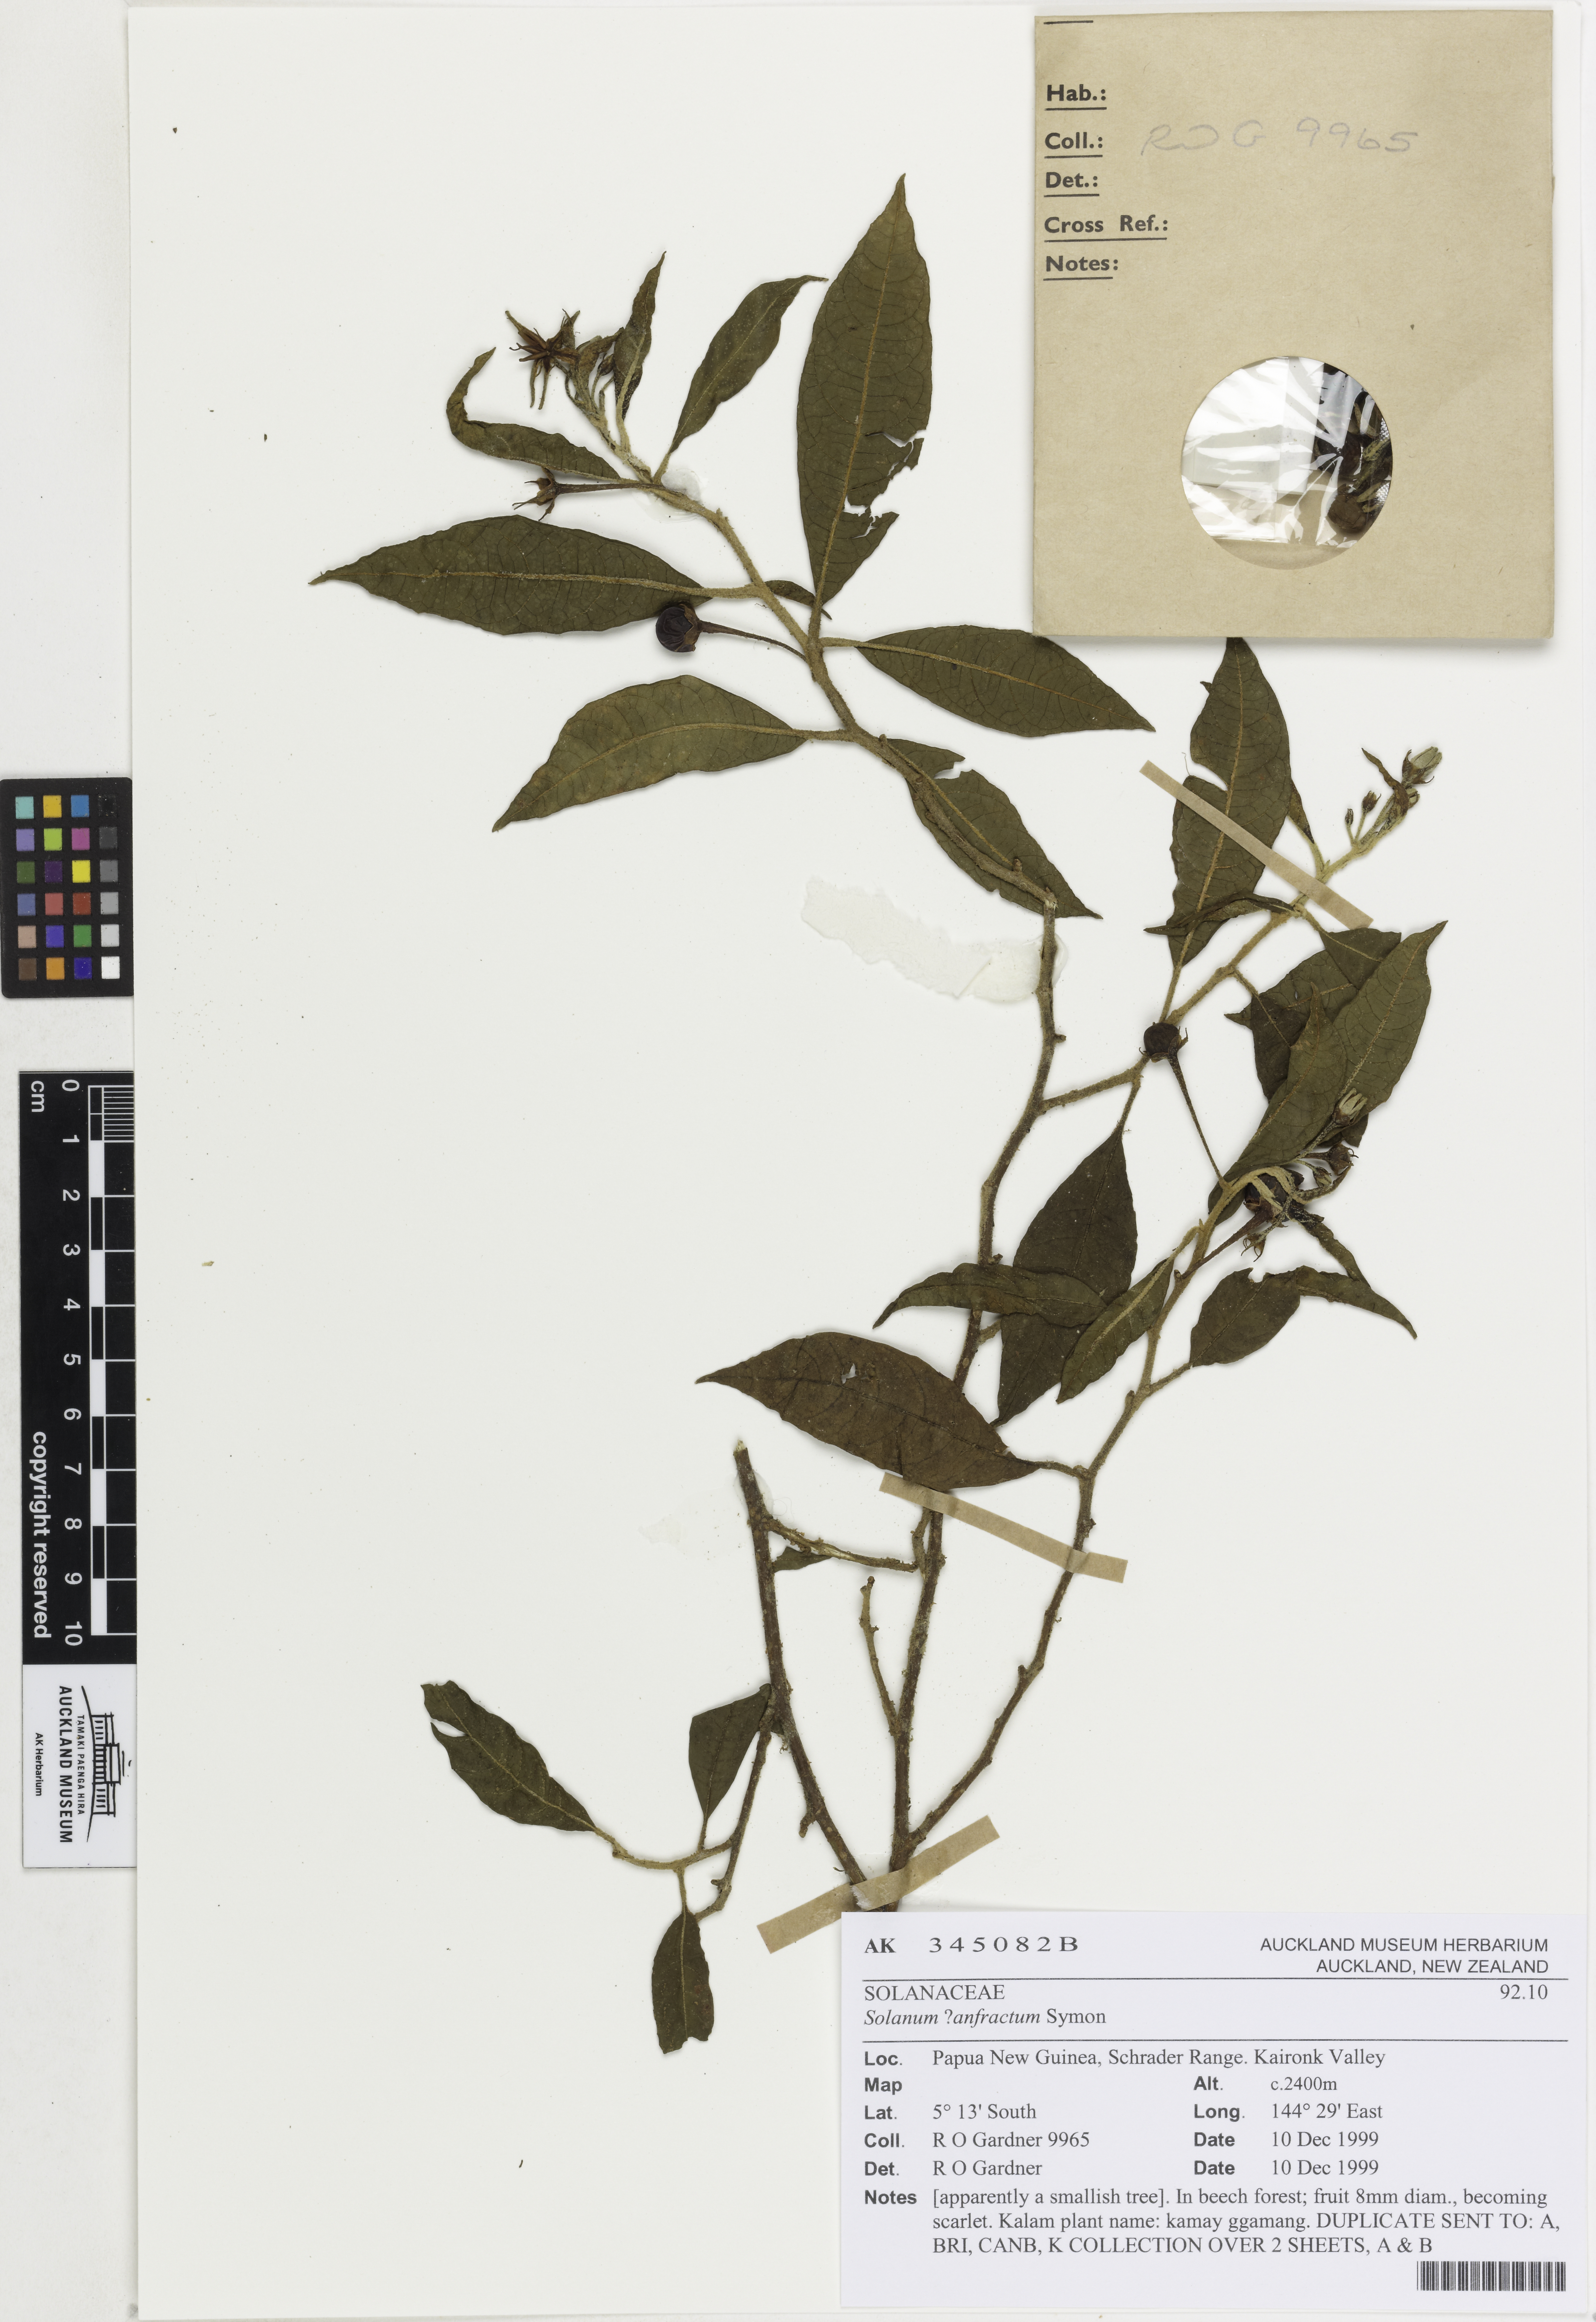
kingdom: Plantae
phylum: Tracheophyta
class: Magnoliopsida
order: Solanales
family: Solanaceae
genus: Solanum
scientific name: Solanum anfractum
